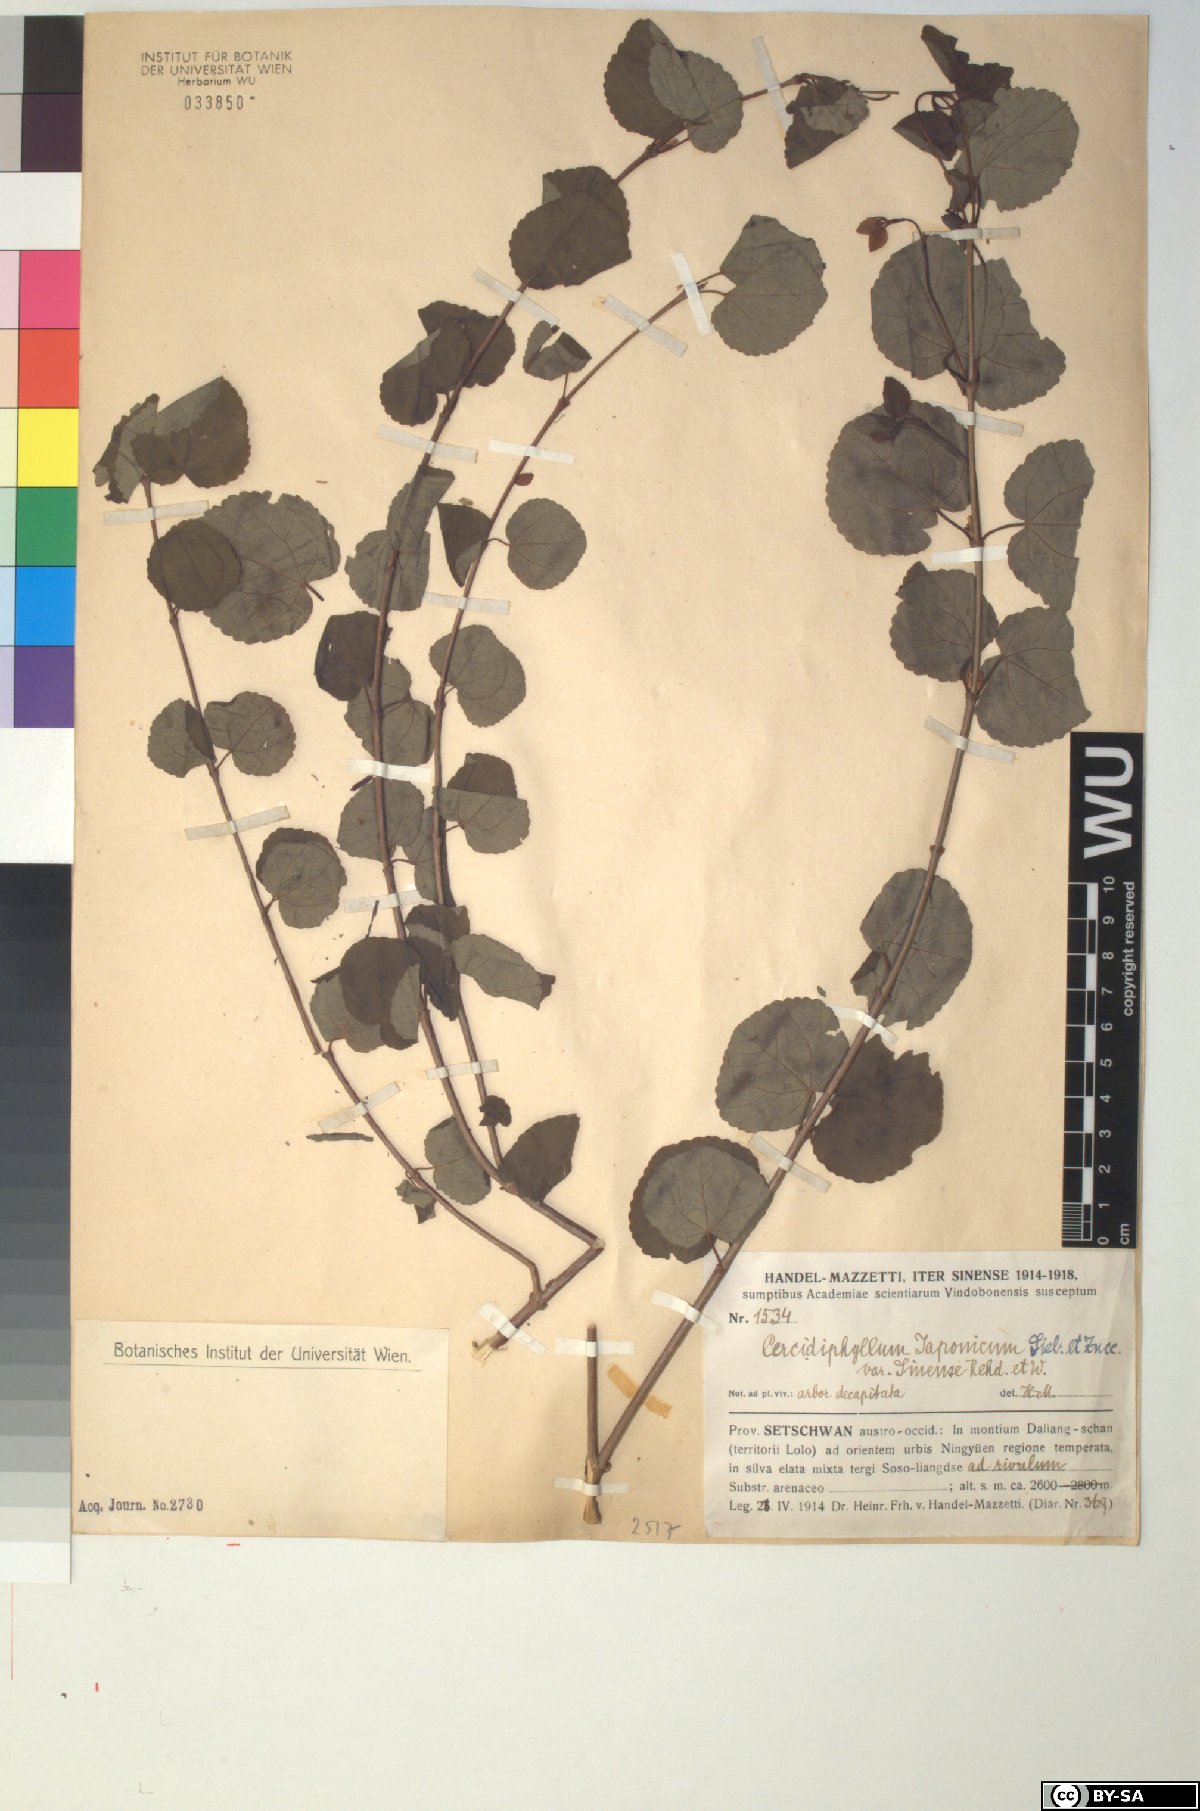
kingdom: Plantae
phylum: Tracheophyta
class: Magnoliopsida
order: Saxifragales
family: Cercidiphyllaceae
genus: Cercidiphyllum
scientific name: Cercidiphyllum japonicum
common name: Katsura tree
